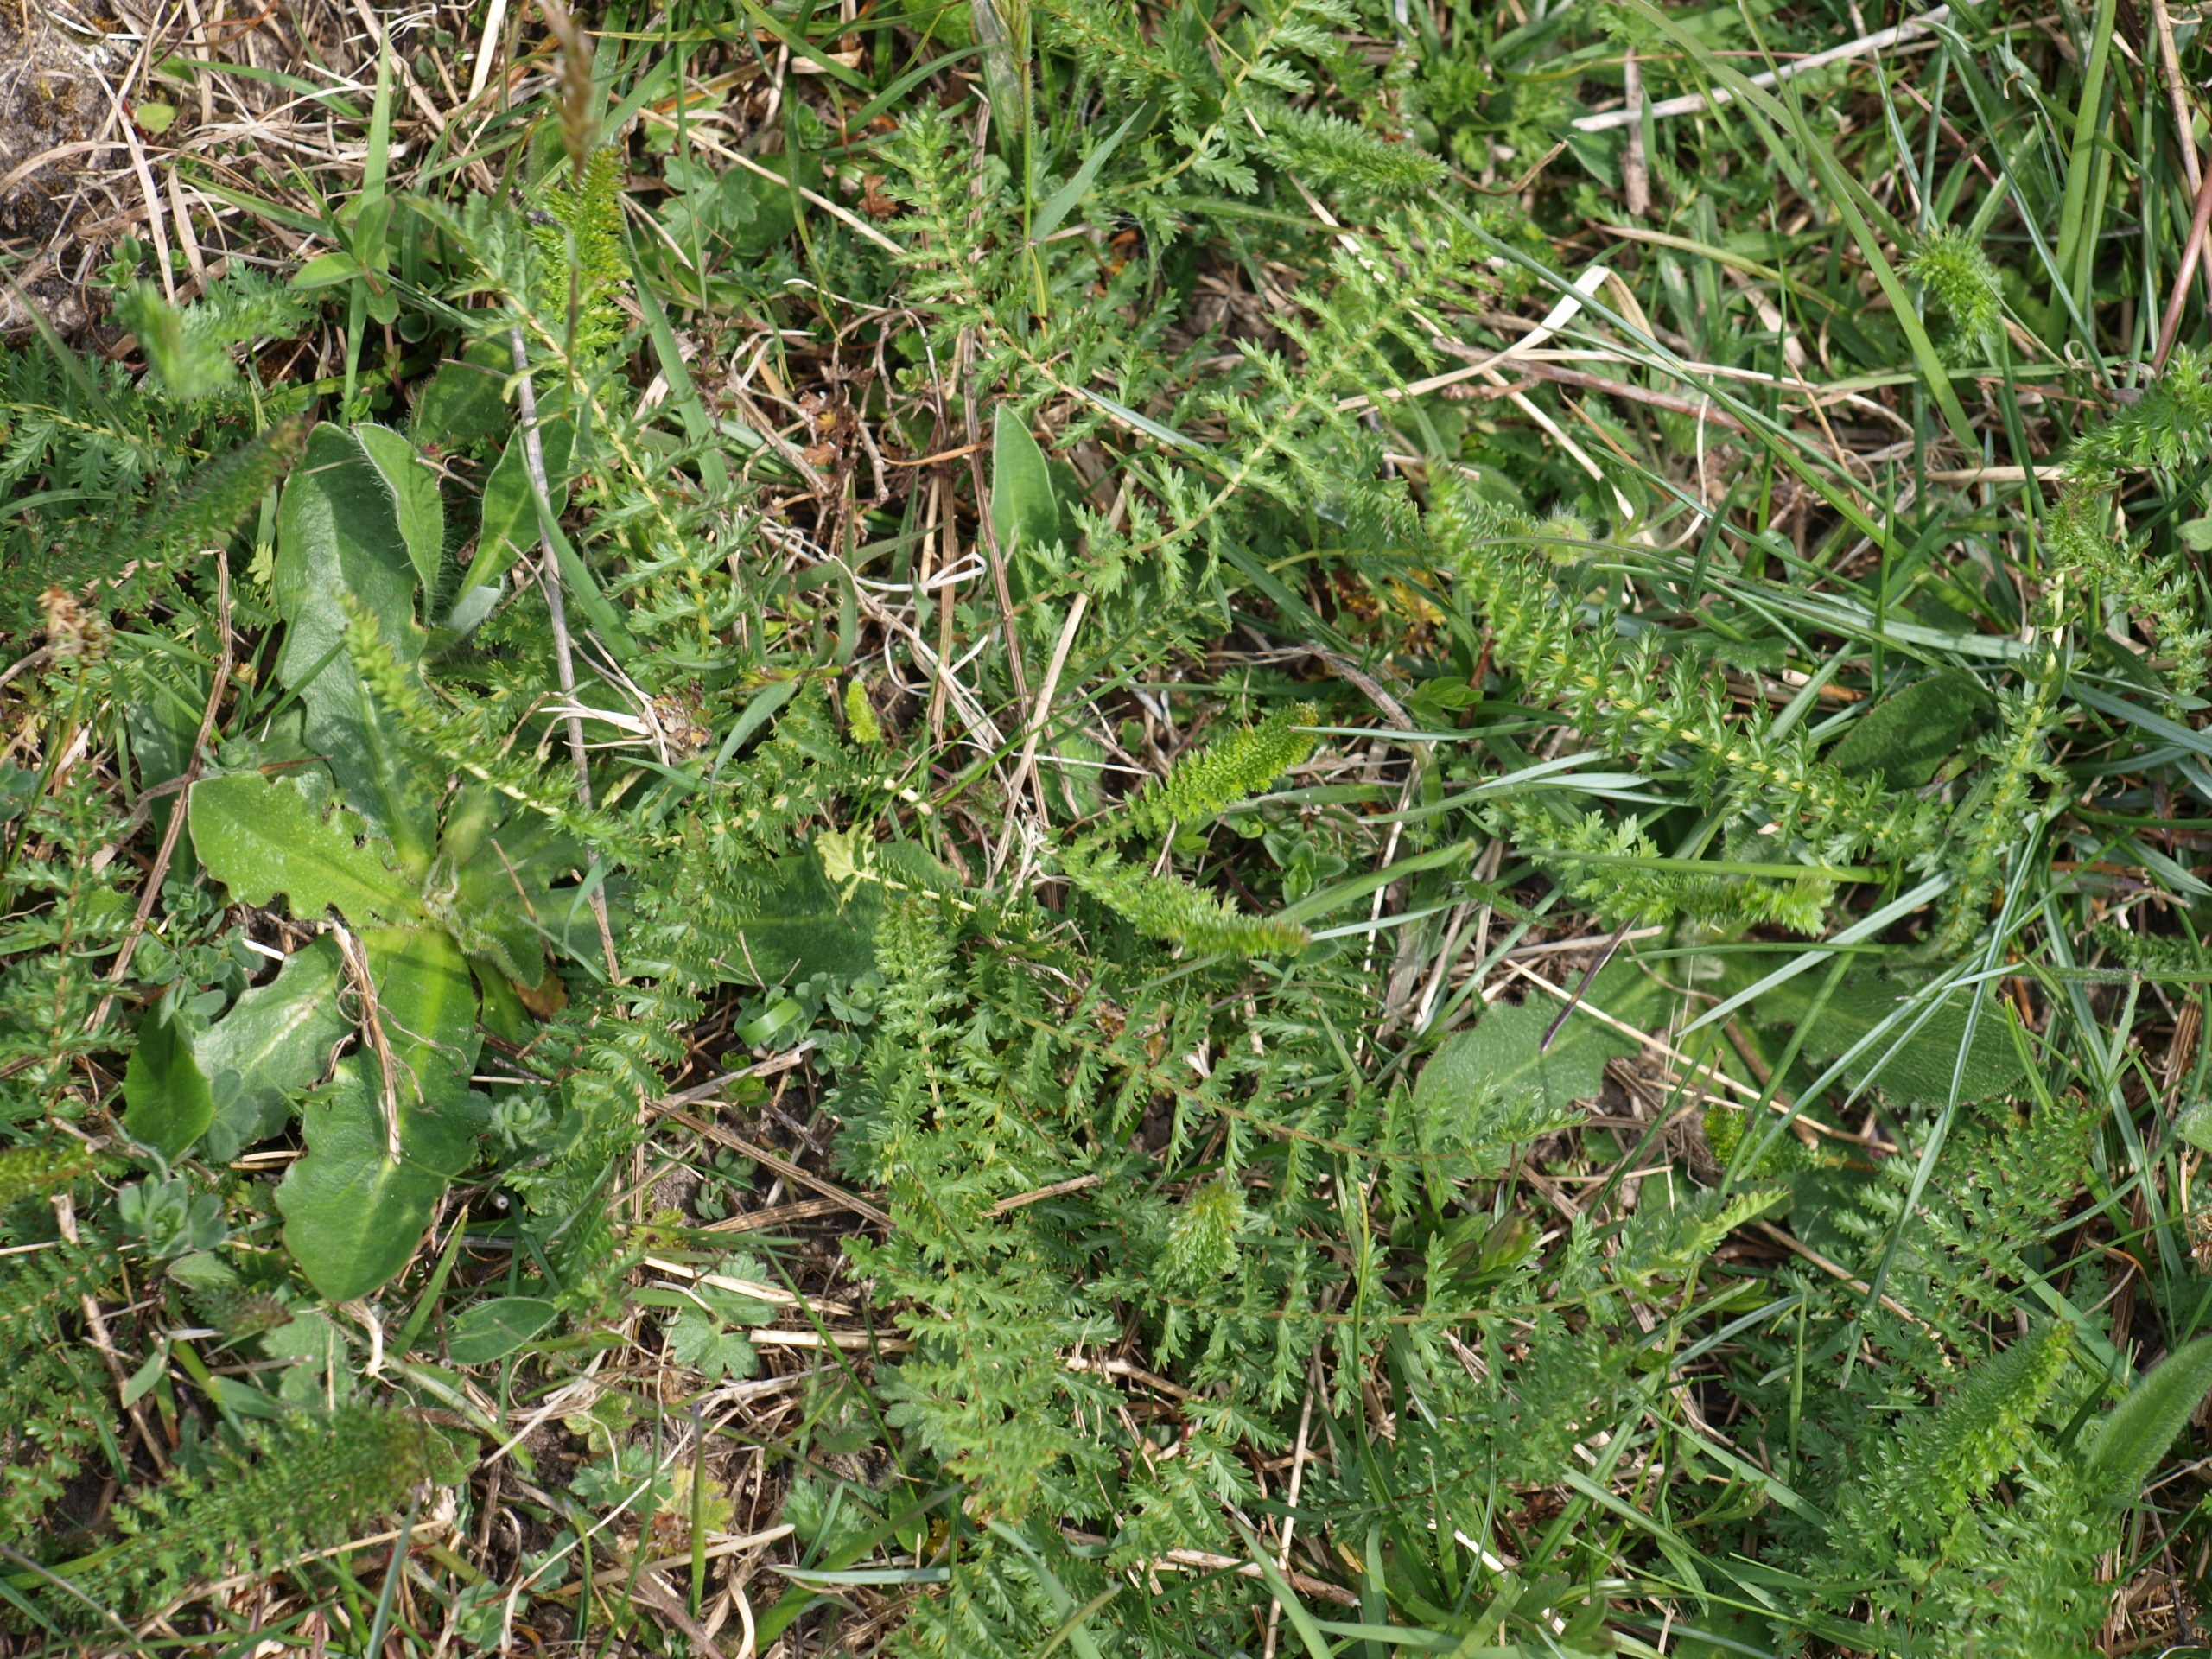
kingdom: Plantae
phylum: Tracheophyta
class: Magnoliopsida
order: Rosales
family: Rosaceae
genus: Filipendula
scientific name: Filipendula vulgaris
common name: Knoldet mjødurt
